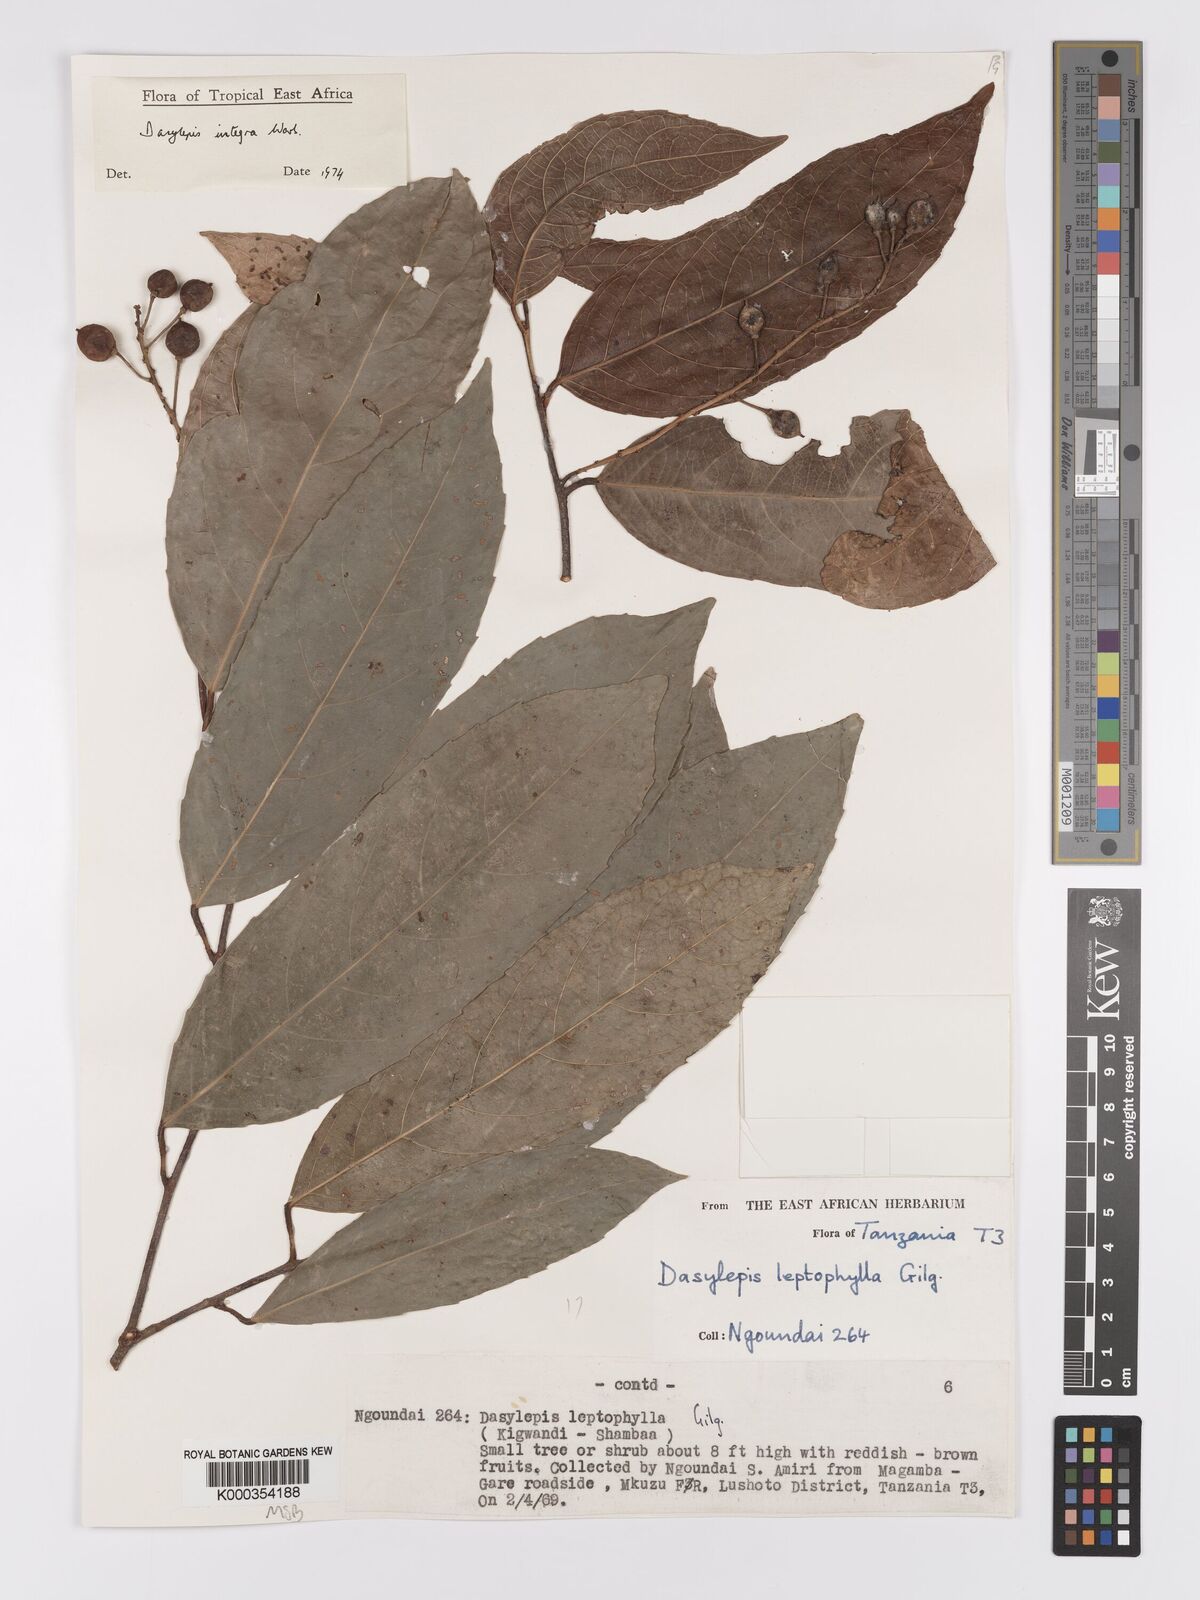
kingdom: Plantae
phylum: Tracheophyta
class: Magnoliopsida
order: Malpighiales
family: Achariaceae
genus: Dasylepis
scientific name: Dasylepis integra
